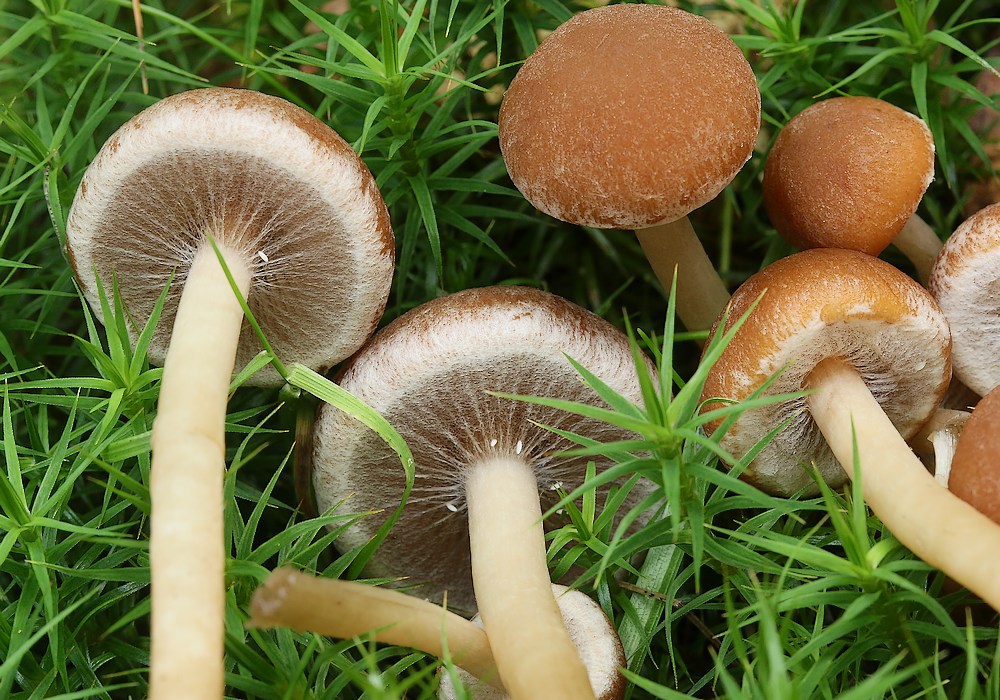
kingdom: Fungi
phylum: Basidiomycota
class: Agaricomycetes
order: Agaricales
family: Psathyrellaceae
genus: Psathyrella
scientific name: Psathyrella piluliformis
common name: lysstokket mørkhat
